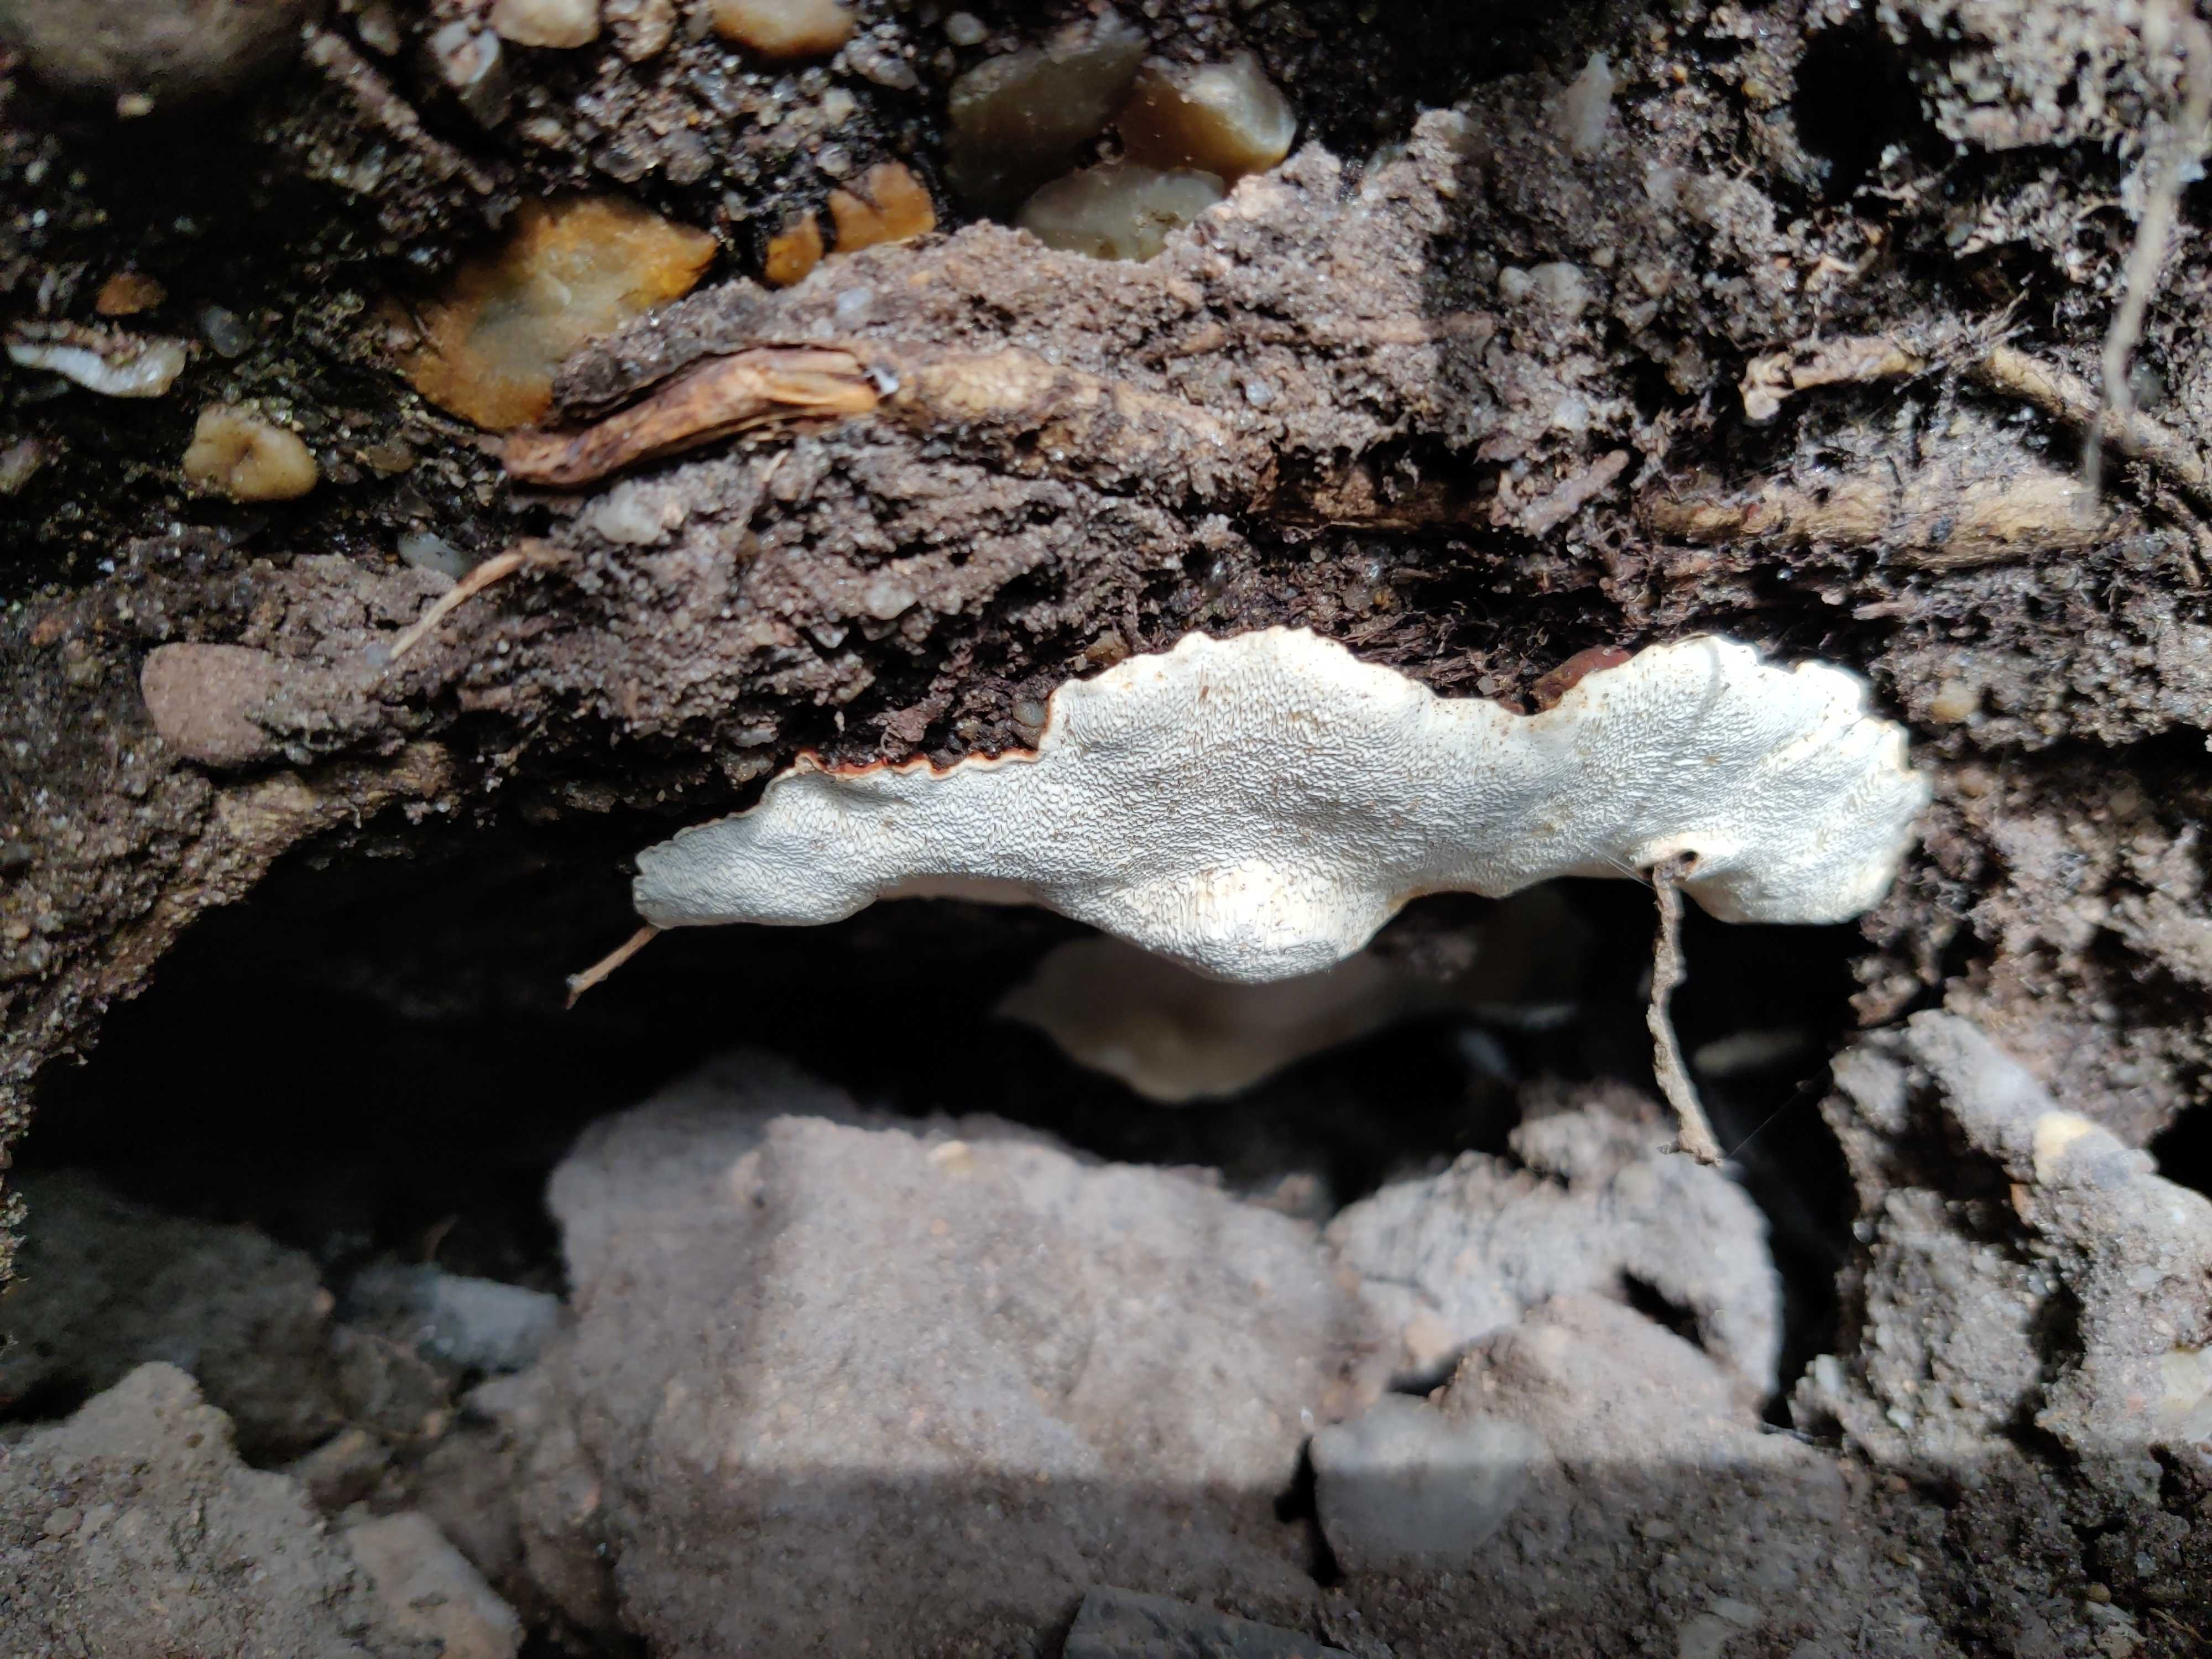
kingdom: Fungi
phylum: Basidiomycota
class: Agaricomycetes
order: Russulales
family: Bondarzewiaceae
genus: Heterobasidion
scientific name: Heterobasidion annosum
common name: almindelig rodfordærver
